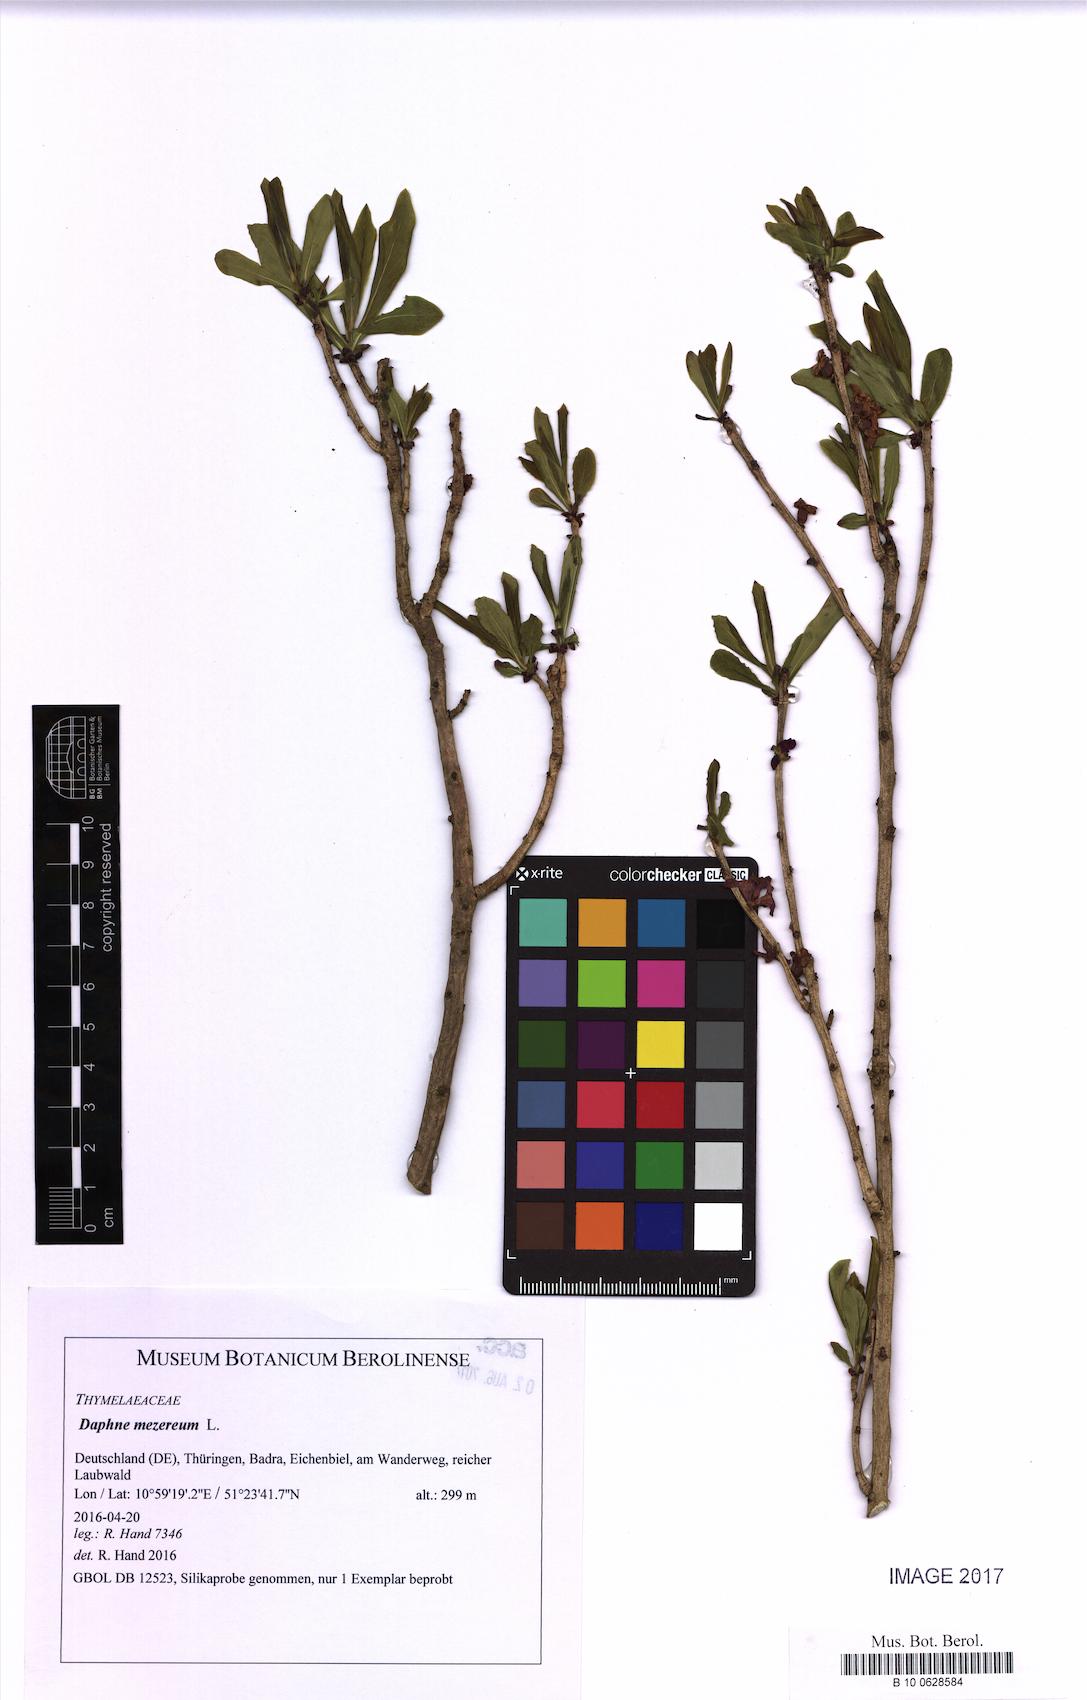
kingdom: Plantae
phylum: Tracheophyta
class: Magnoliopsida
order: Malvales
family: Thymelaeaceae
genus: Daphne
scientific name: Daphne mezereum
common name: Mezereon
